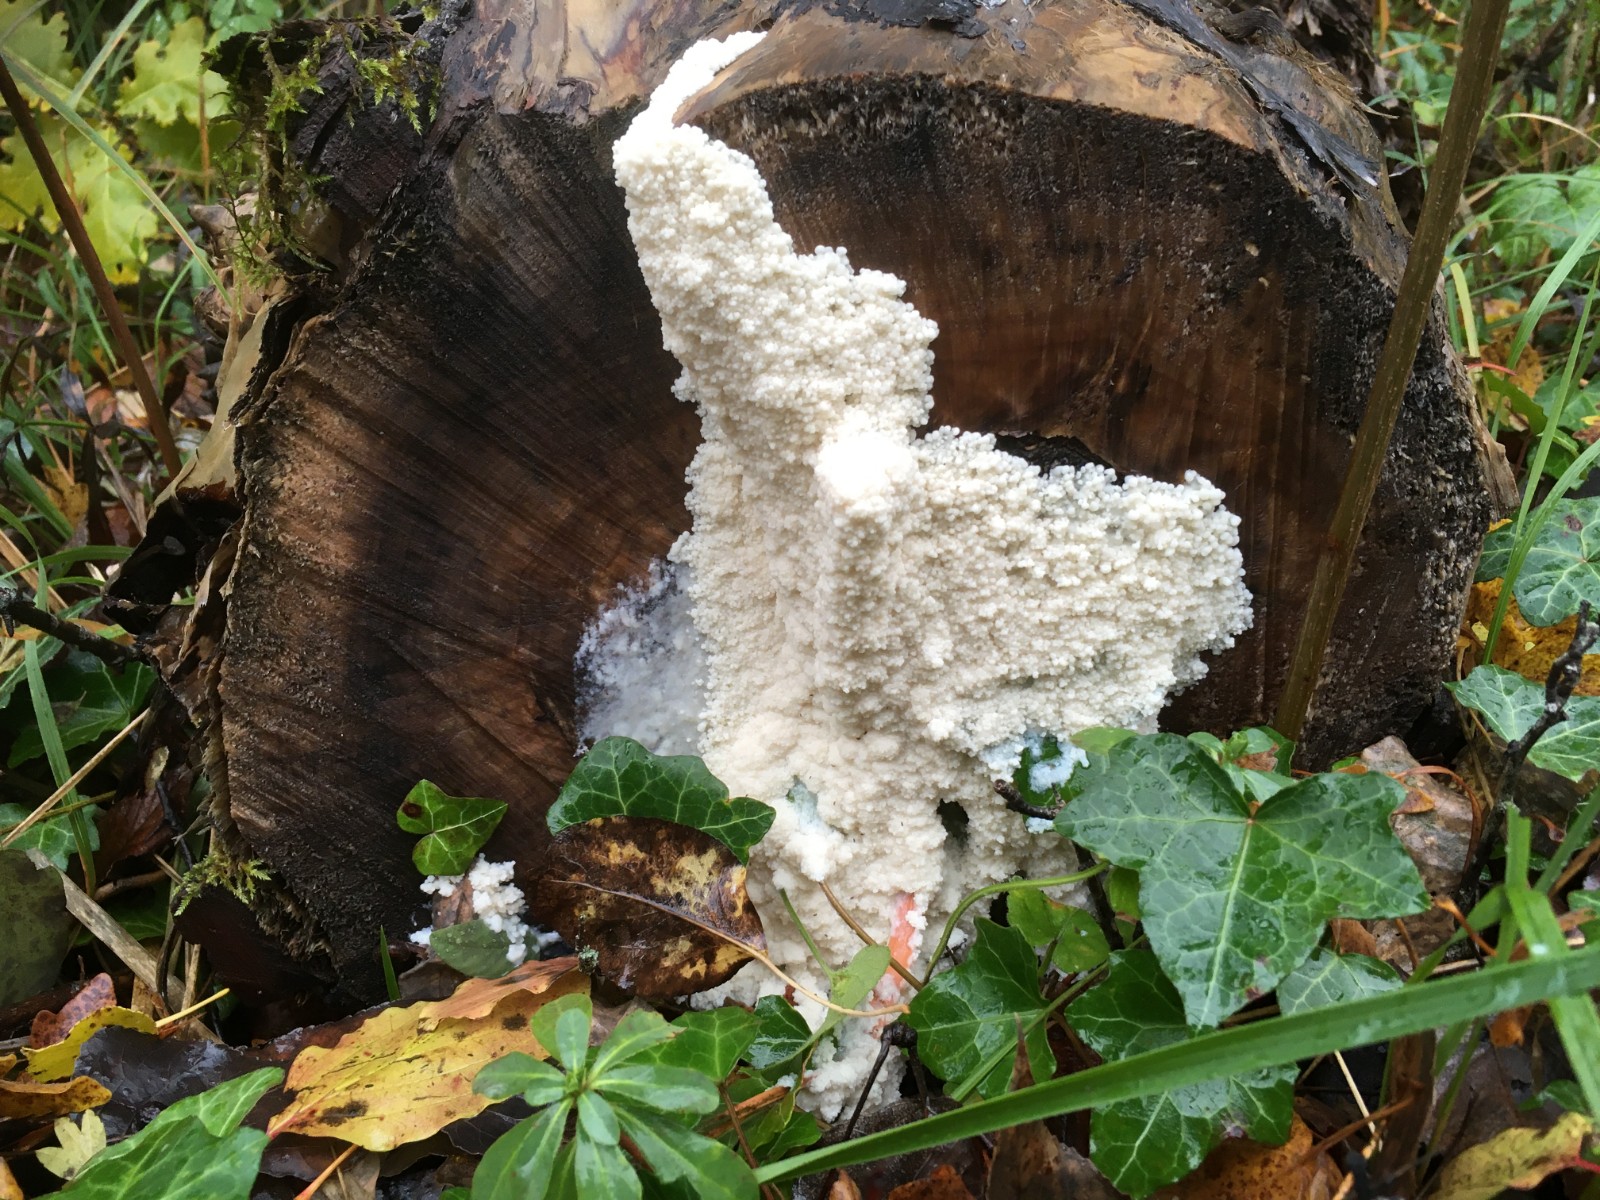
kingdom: Protozoa
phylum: Mycetozoa
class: Myxomycetes
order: Stemonitidales
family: Stemonitidaceae
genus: Brefeldia
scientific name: Brefeldia maxima
